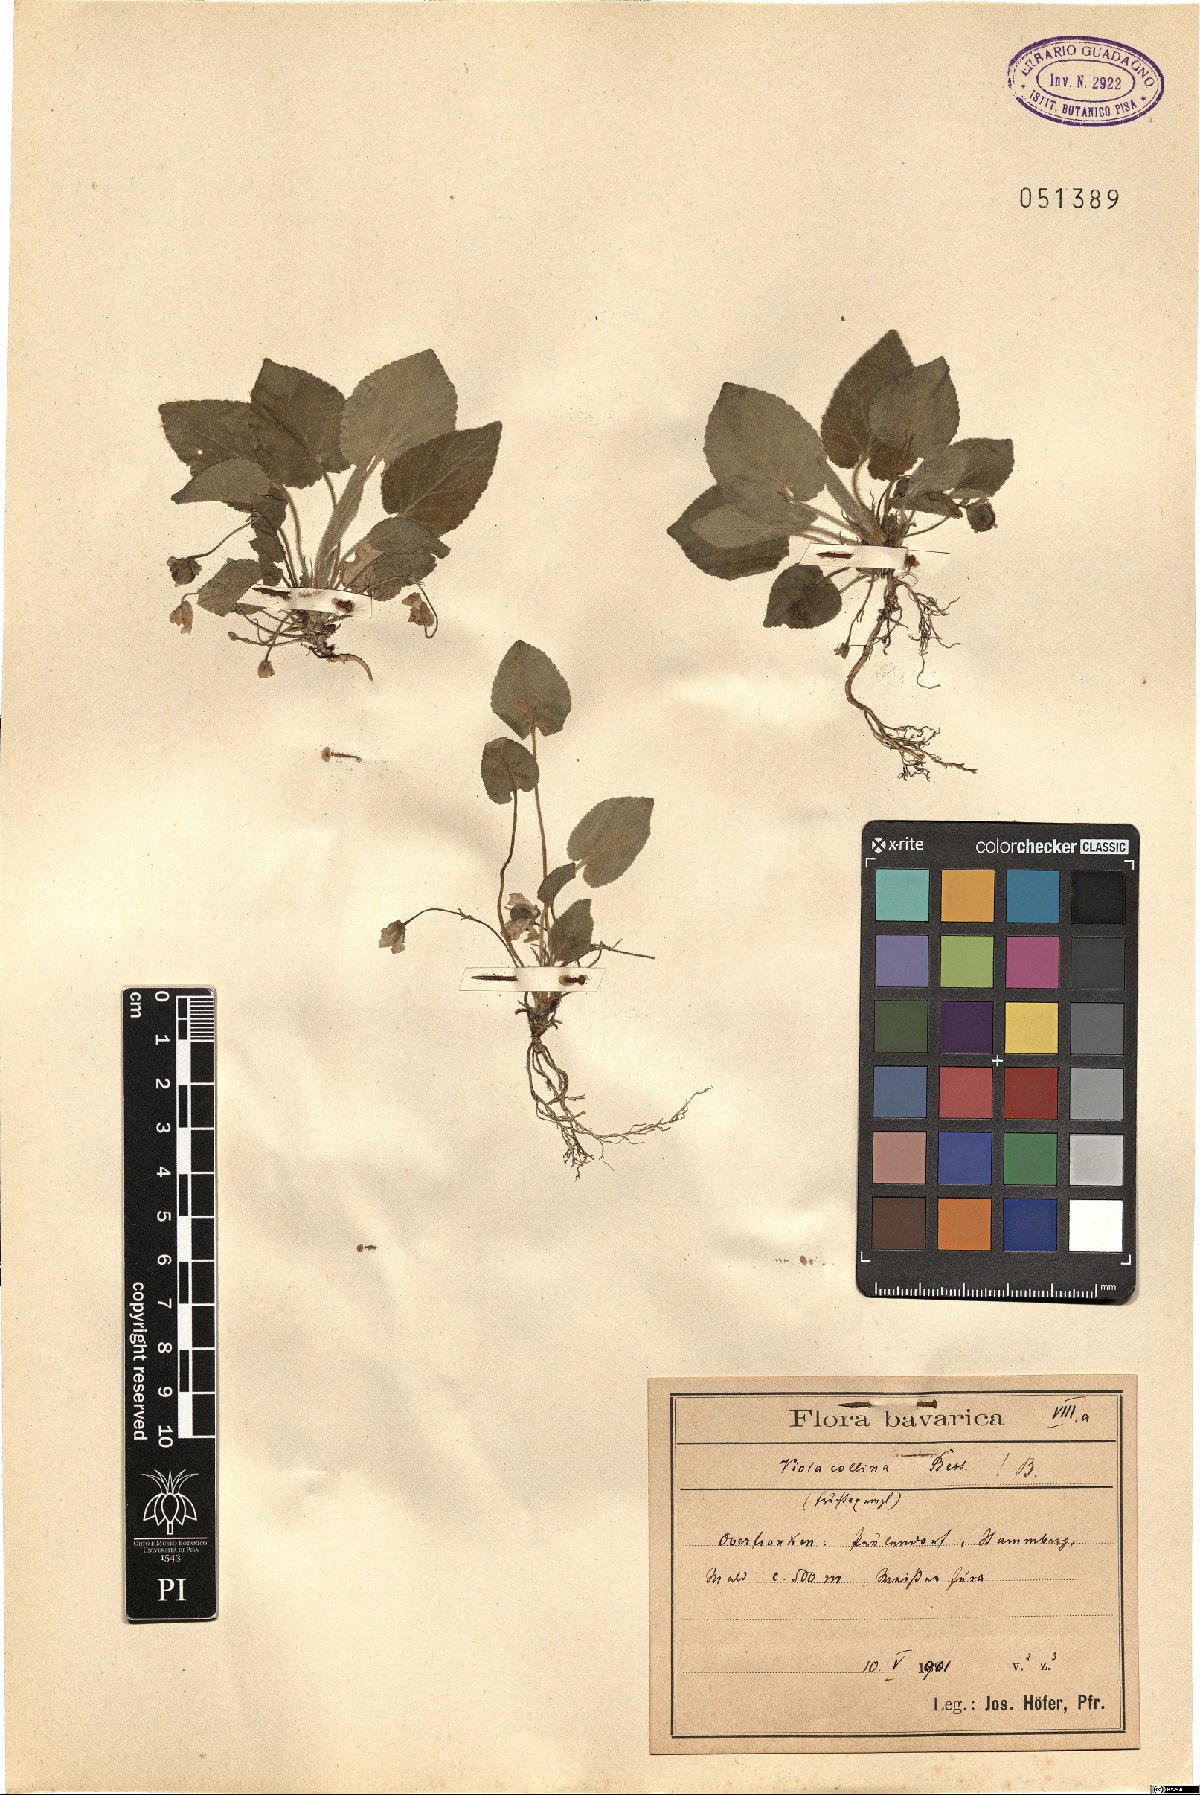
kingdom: Plantae
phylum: Tracheophyta
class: Magnoliopsida
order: Malpighiales
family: Violaceae
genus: Viola
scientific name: Viola collina
